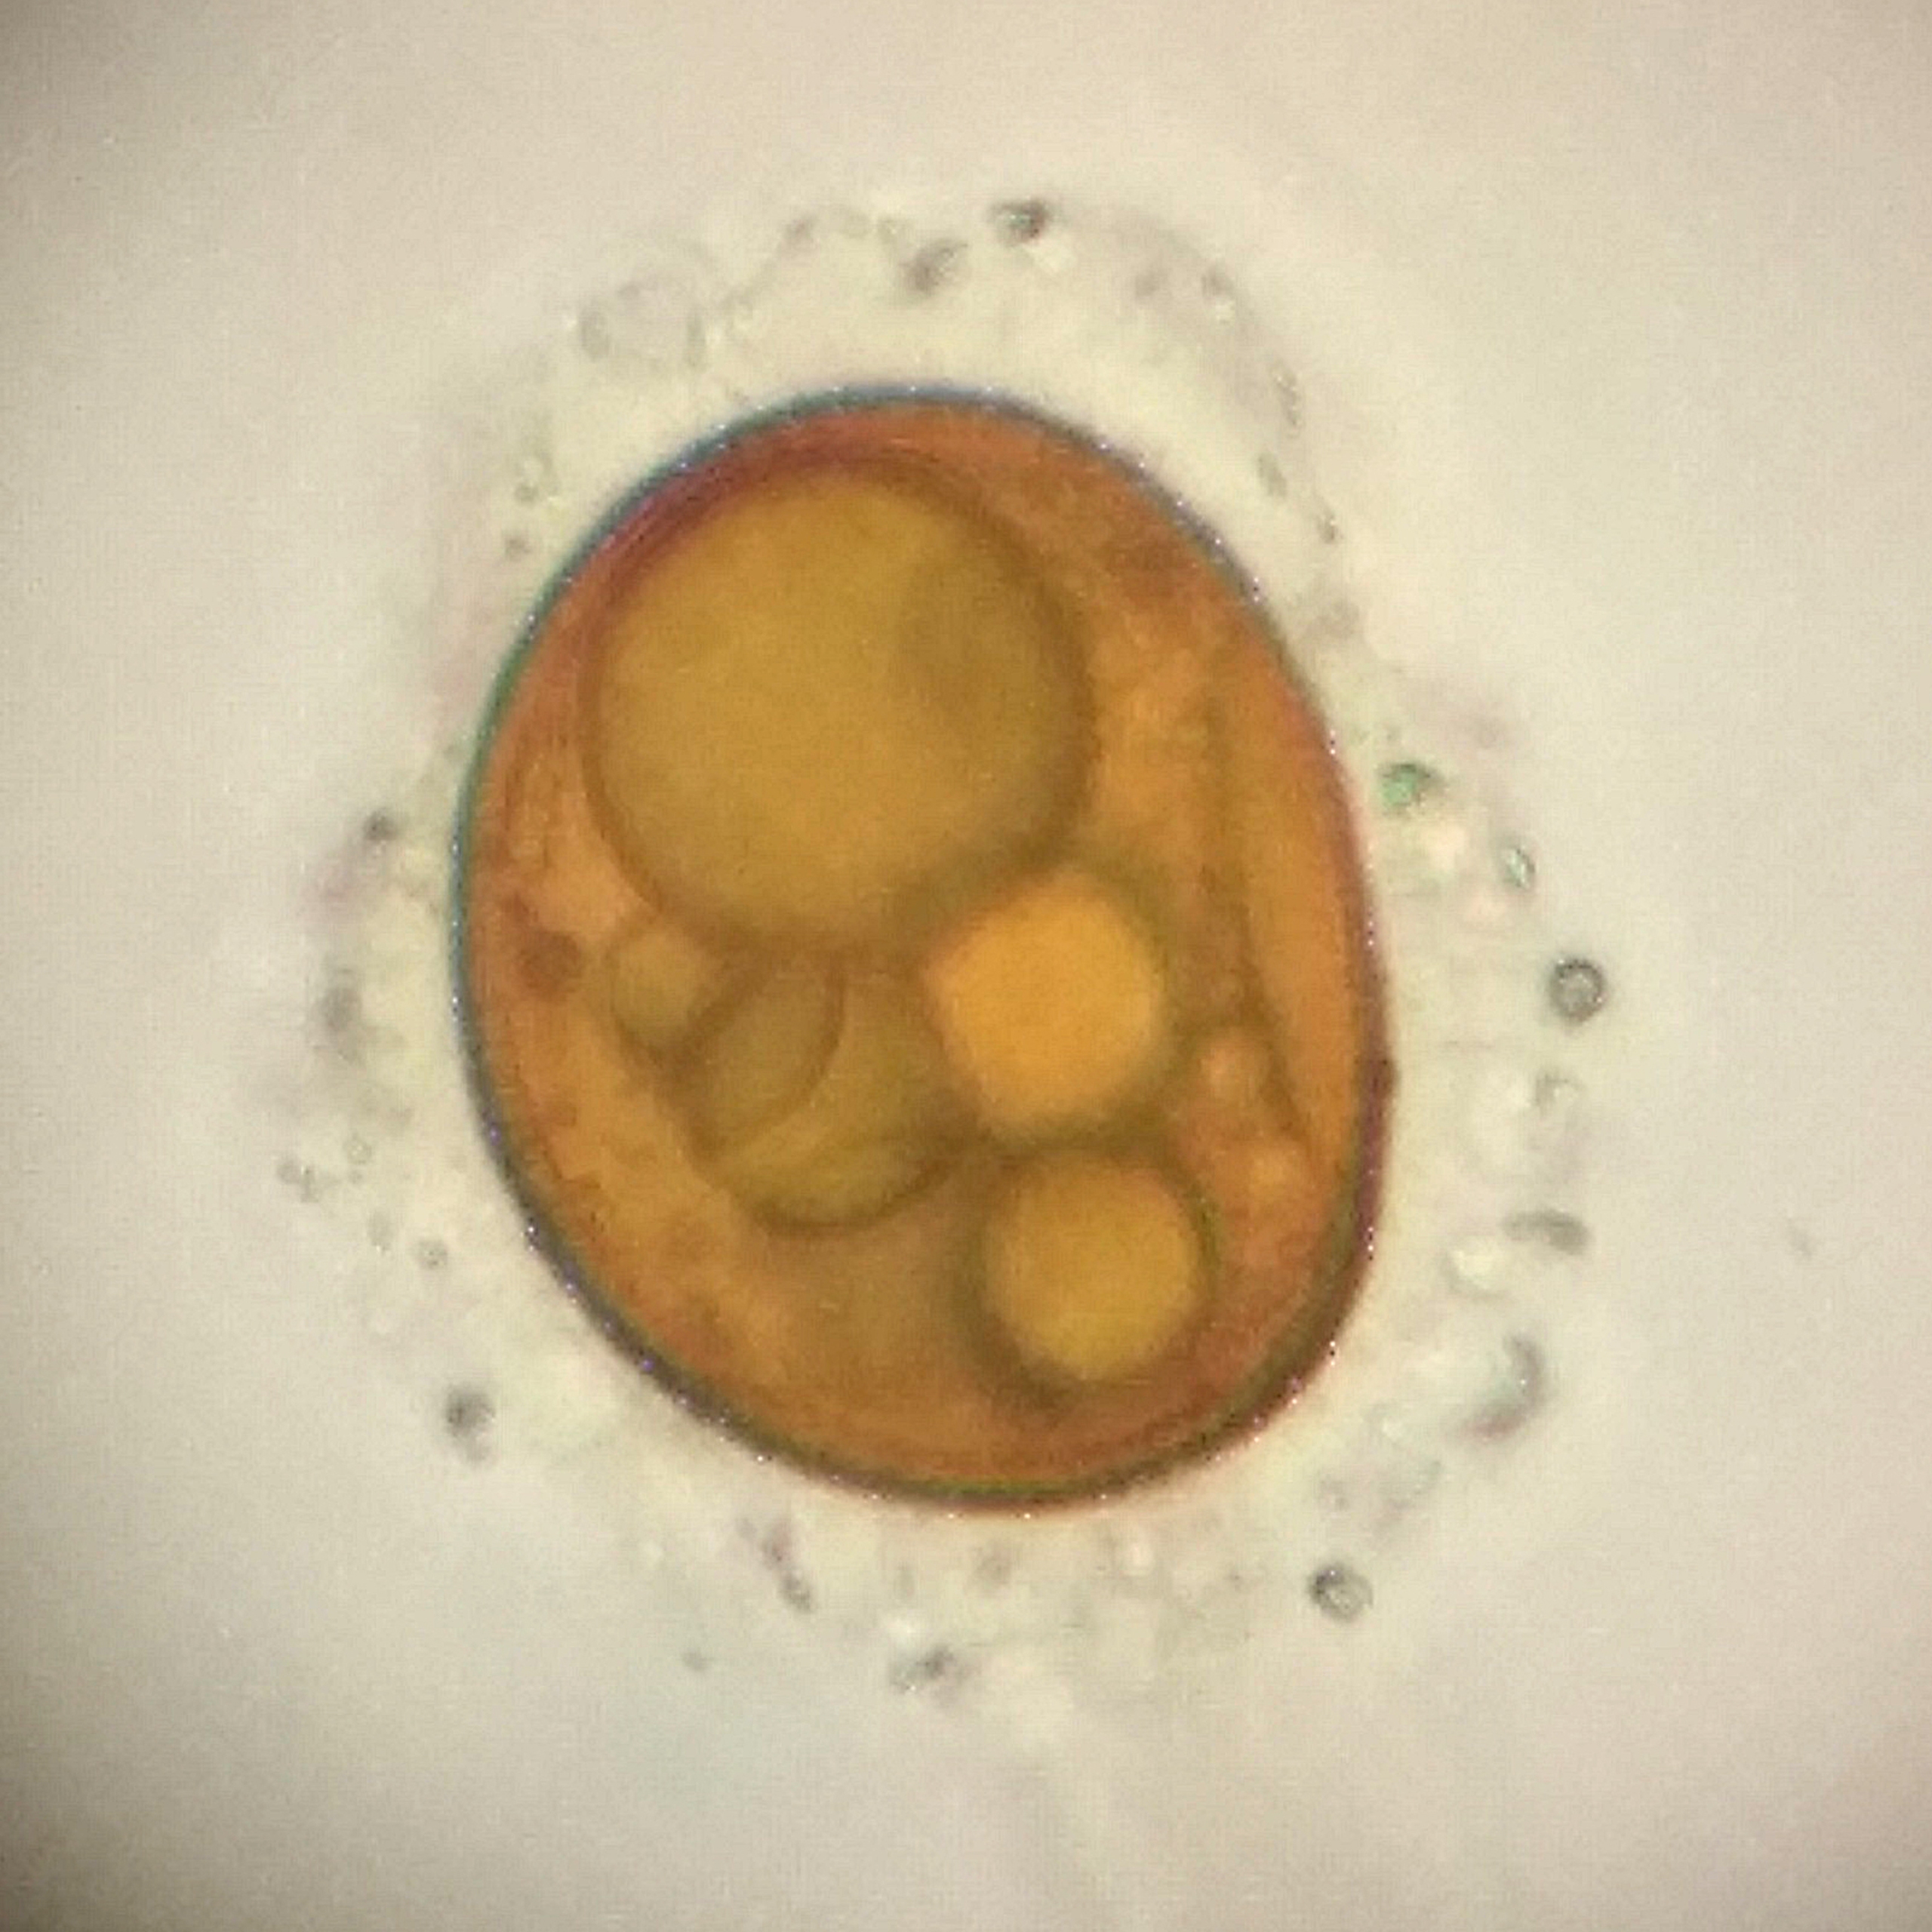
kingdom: Plantae
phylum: Bryophyta
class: Bryopsida
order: Pottiales
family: Ephemeraceae
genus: Ephemerum
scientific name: Ephemerum serratum
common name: Glat døgnmos
